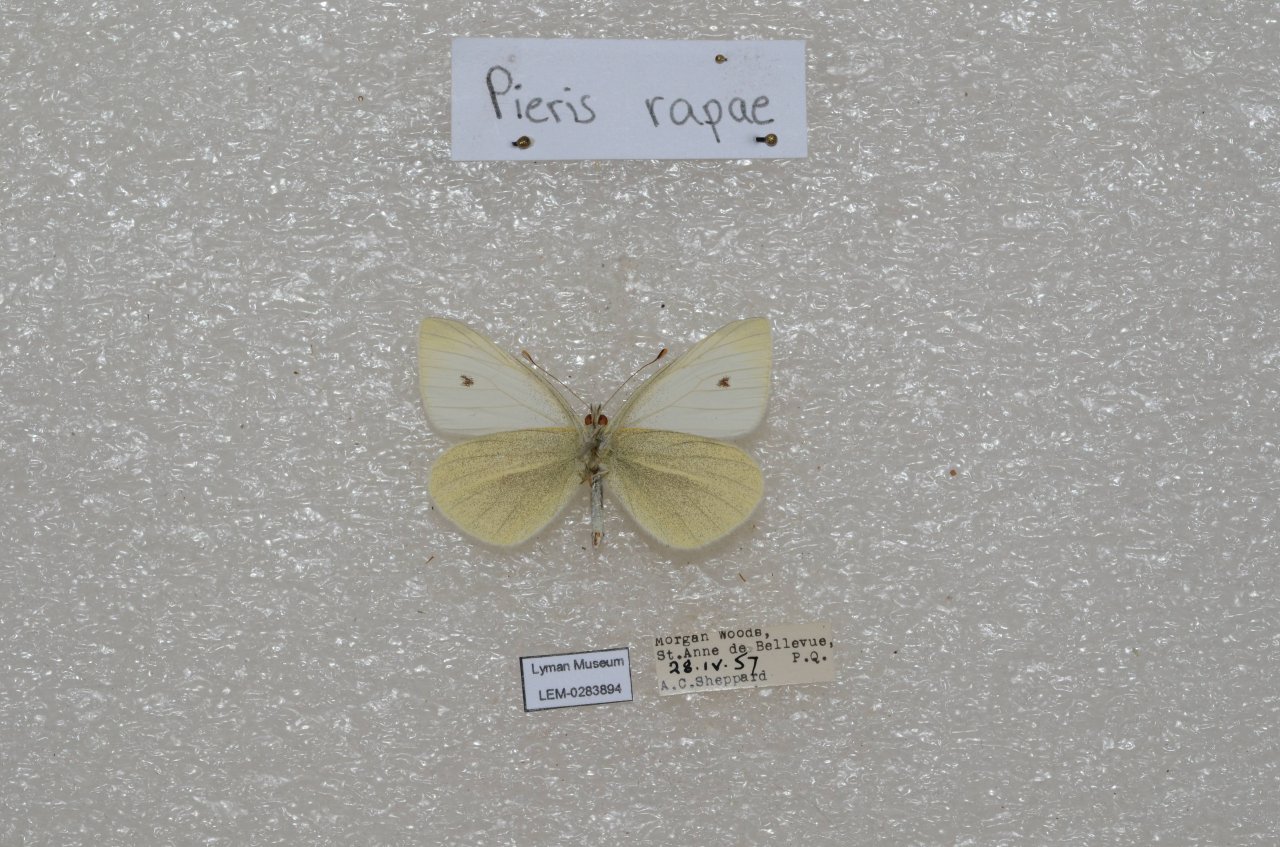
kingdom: Animalia
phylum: Arthropoda
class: Insecta
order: Lepidoptera
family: Pieridae
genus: Pieris
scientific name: Pieris rapae
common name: Cabbage White
